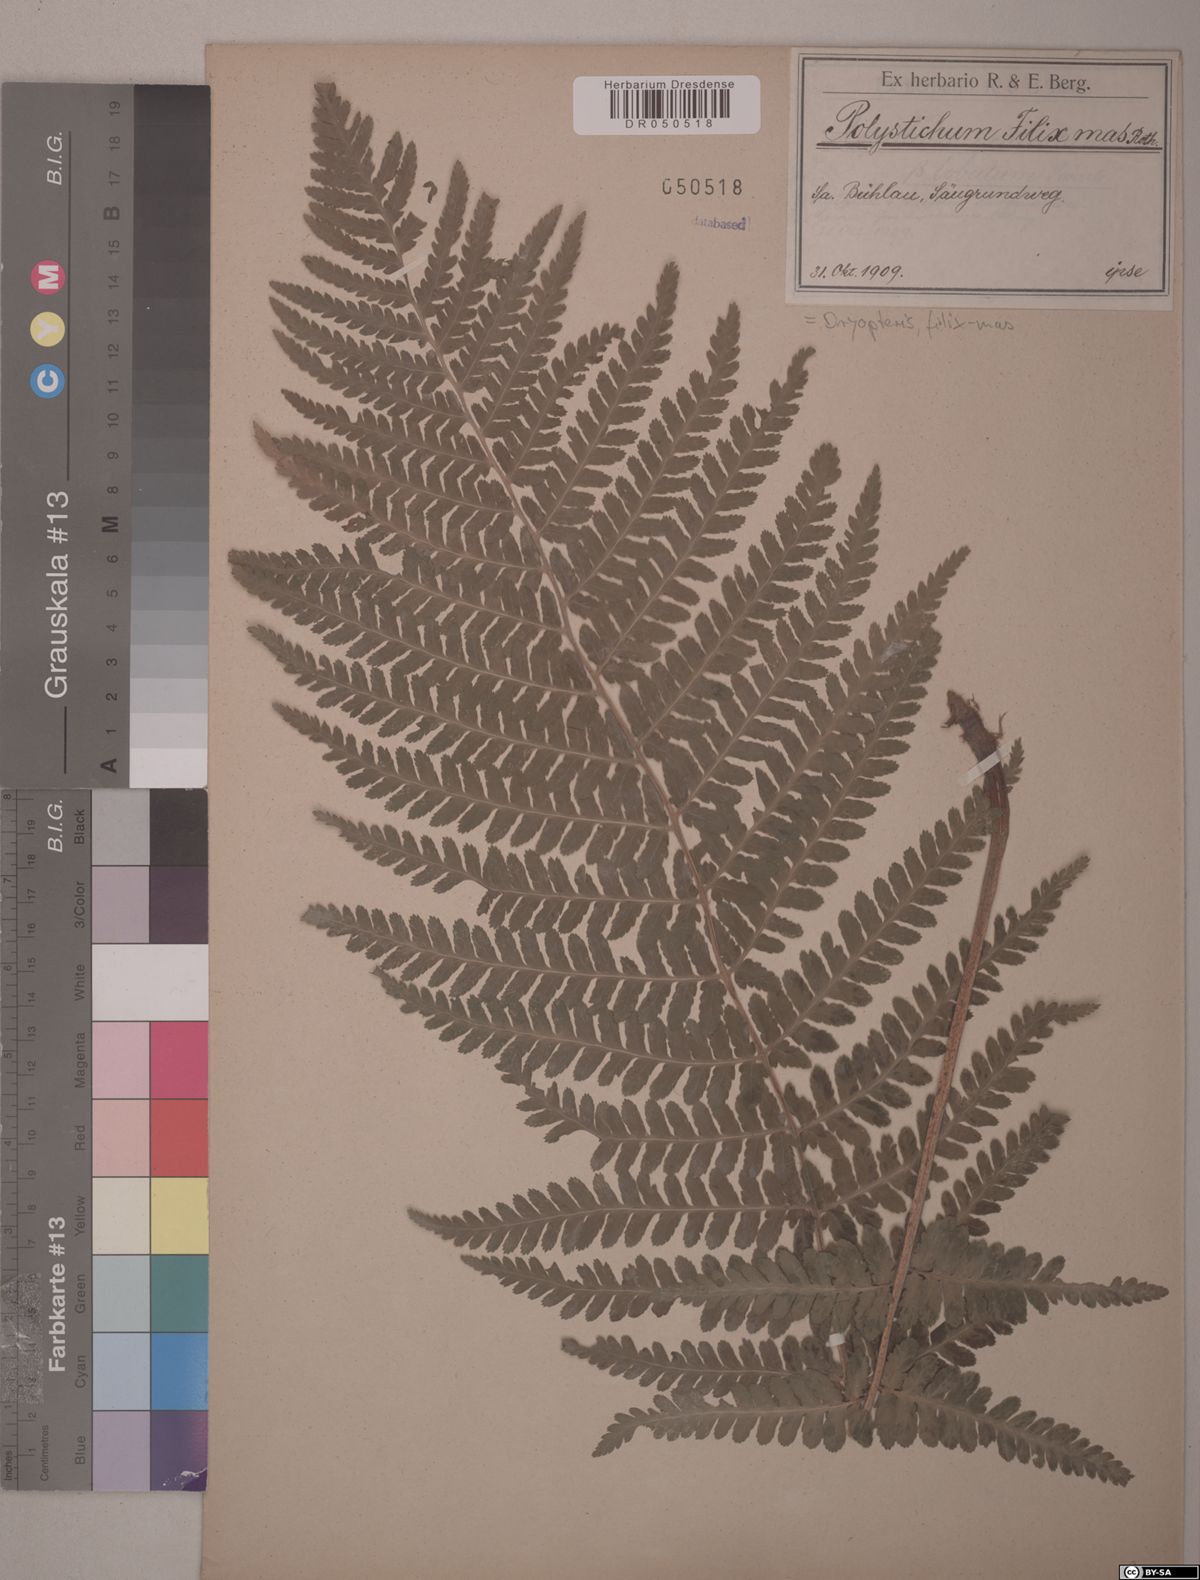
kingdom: Plantae
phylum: Tracheophyta
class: Polypodiopsida
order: Polypodiales
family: Dryopteridaceae
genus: Dryopteris
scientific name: Dryopteris filix-mas
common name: Male fern
